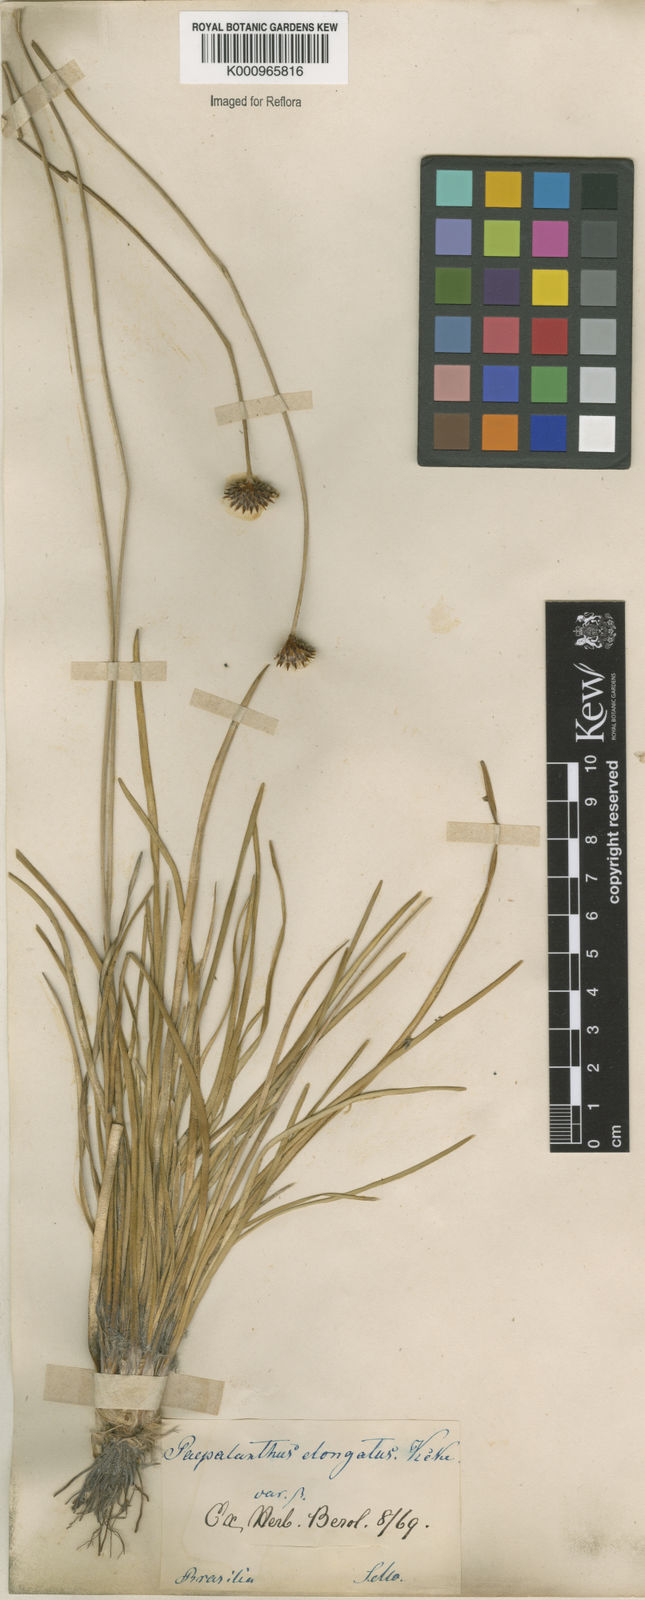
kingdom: Plantae
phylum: Tracheophyta
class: Liliopsida
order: Poales
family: Eriocaulaceae
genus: Paepalanthus
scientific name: Paepalanthus
